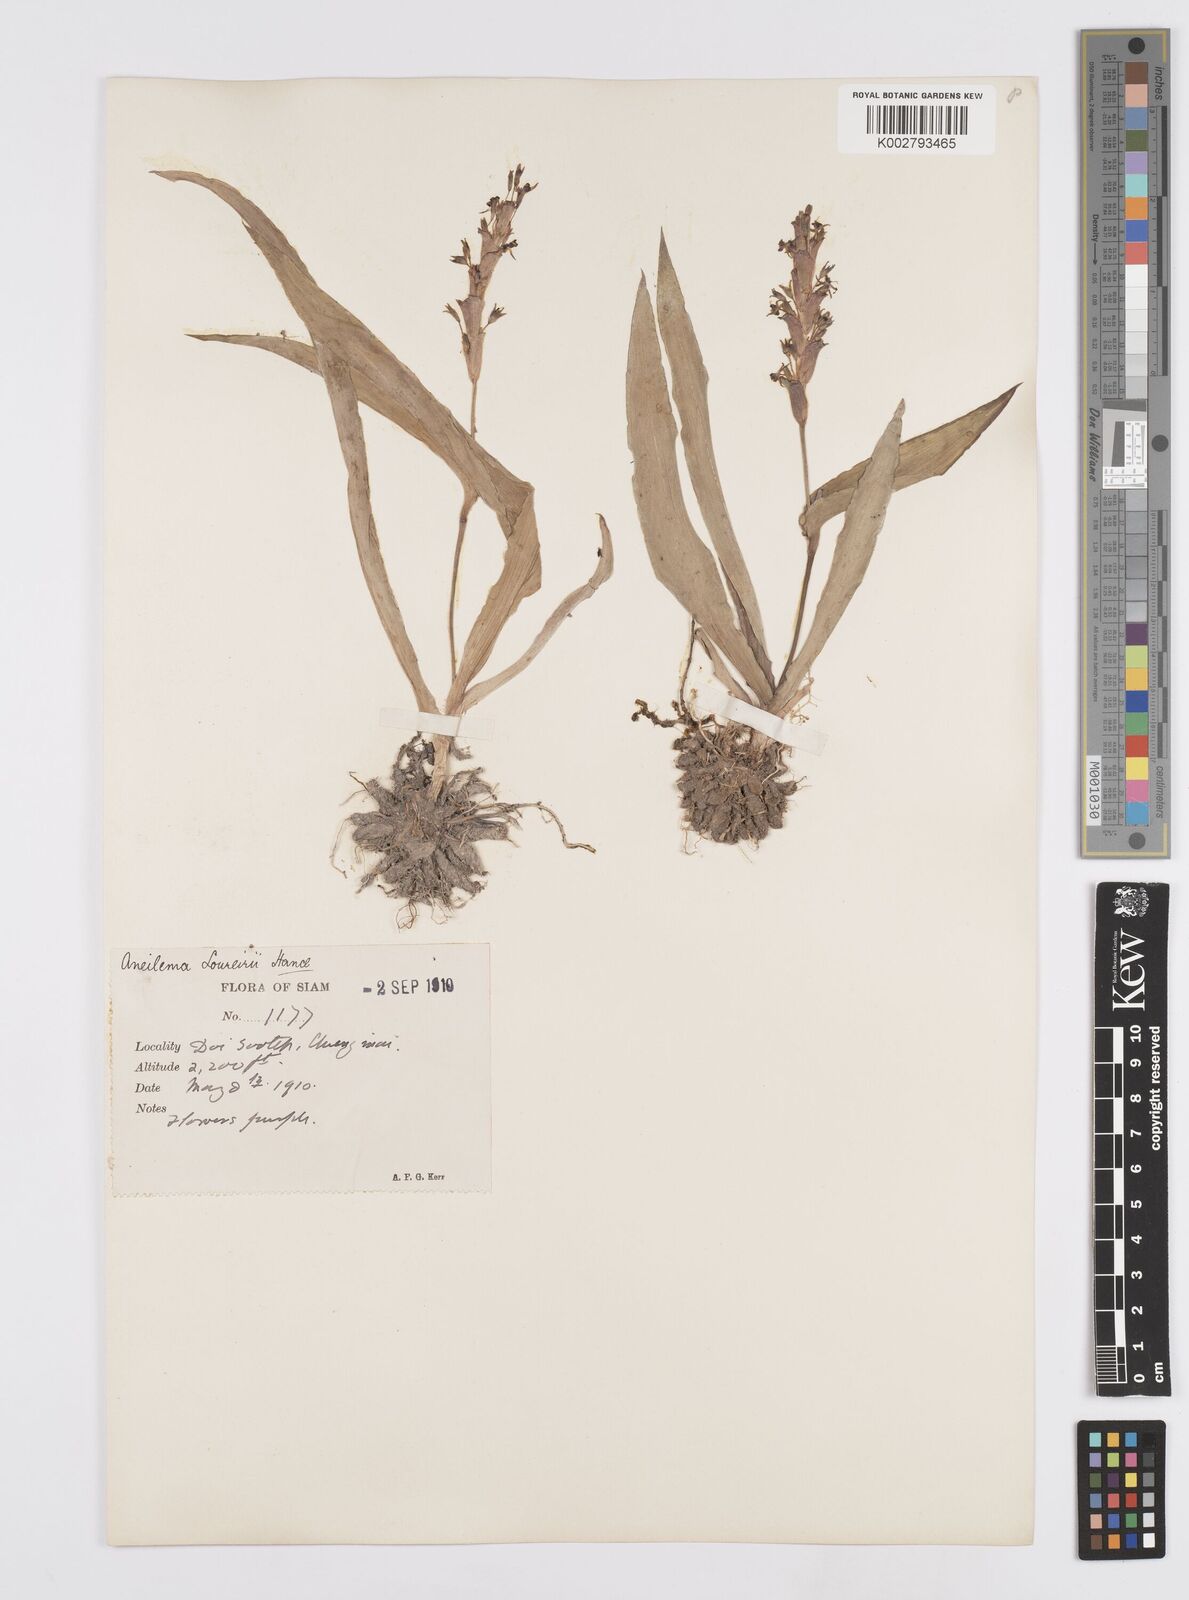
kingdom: Plantae
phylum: Tracheophyta
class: Liliopsida
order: Commelinales
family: Commelinaceae
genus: Murdannia
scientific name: Murdannia edulis
